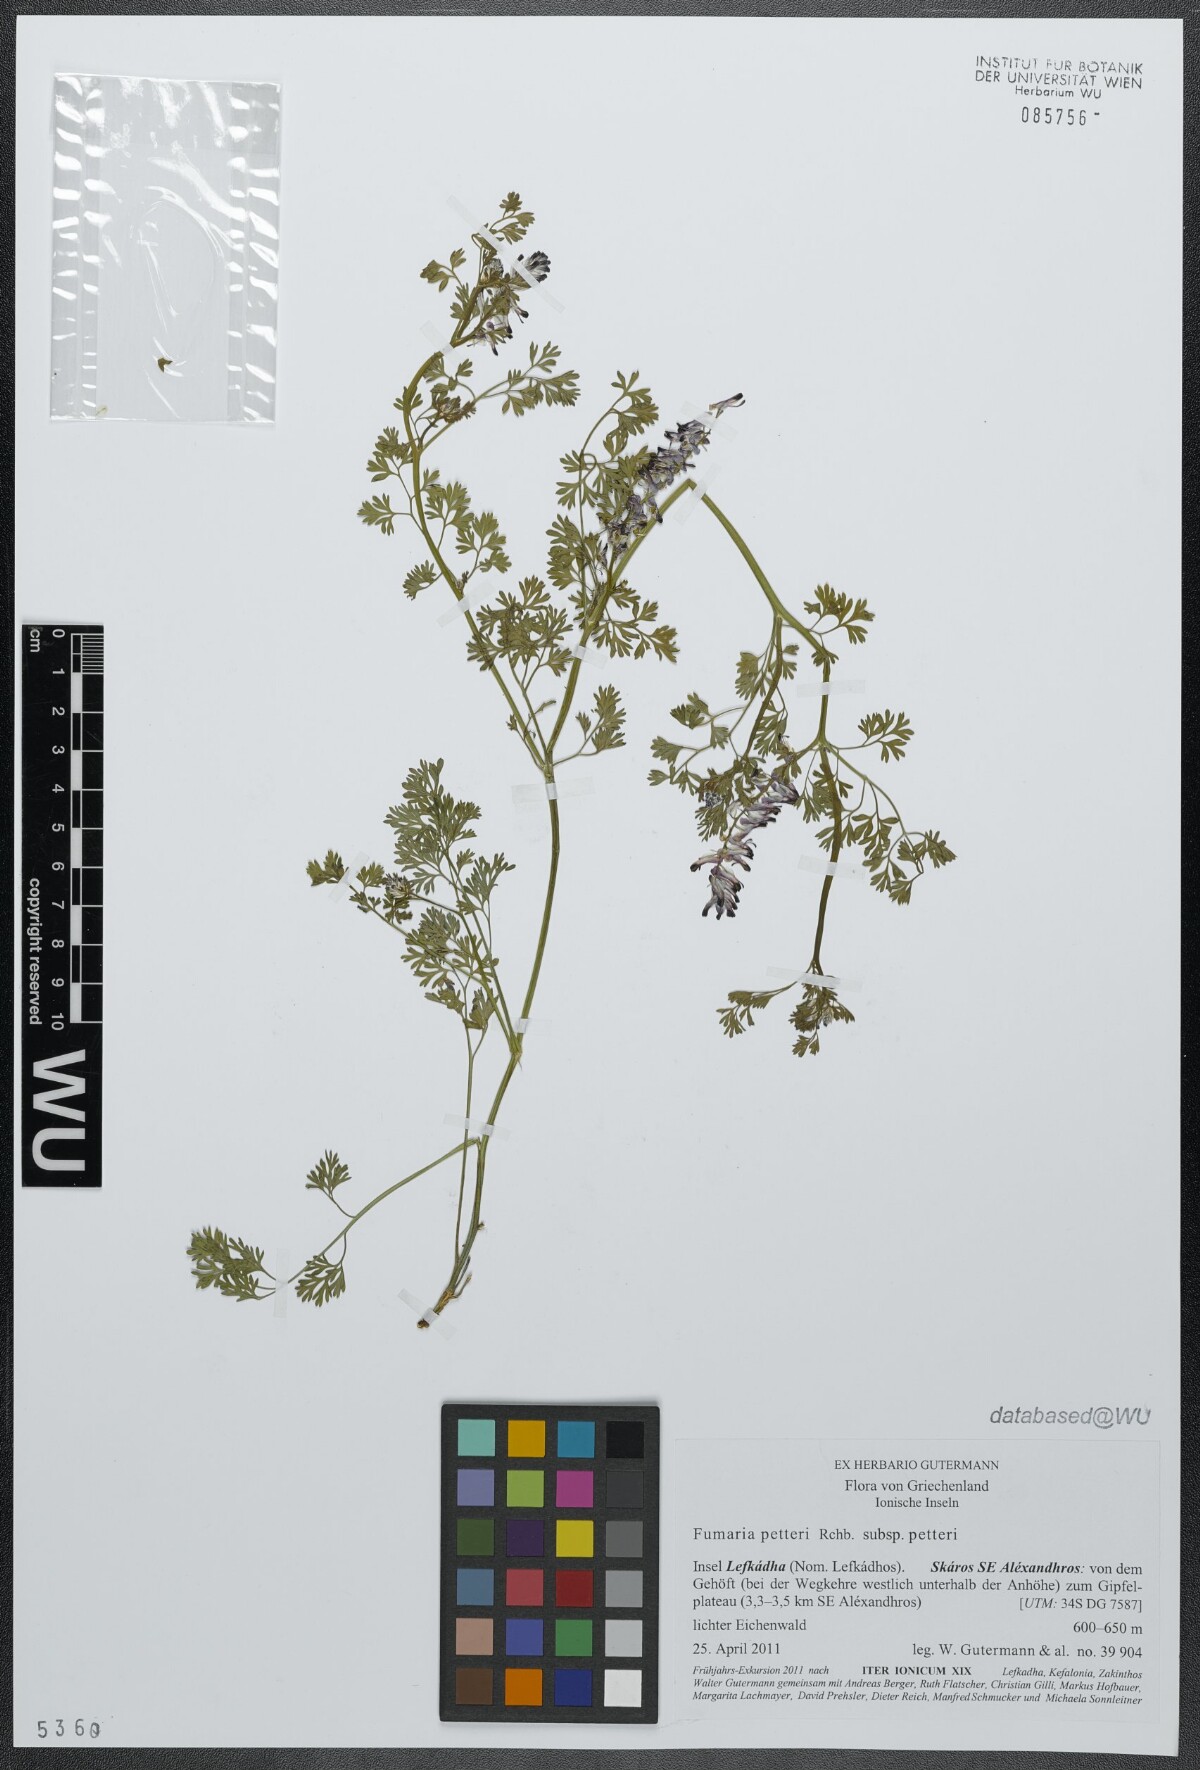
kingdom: Plantae
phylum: Tracheophyta
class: Magnoliopsida
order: Ranunculales
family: Papaveraceae
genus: Fumaria
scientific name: Fumaria petteri
